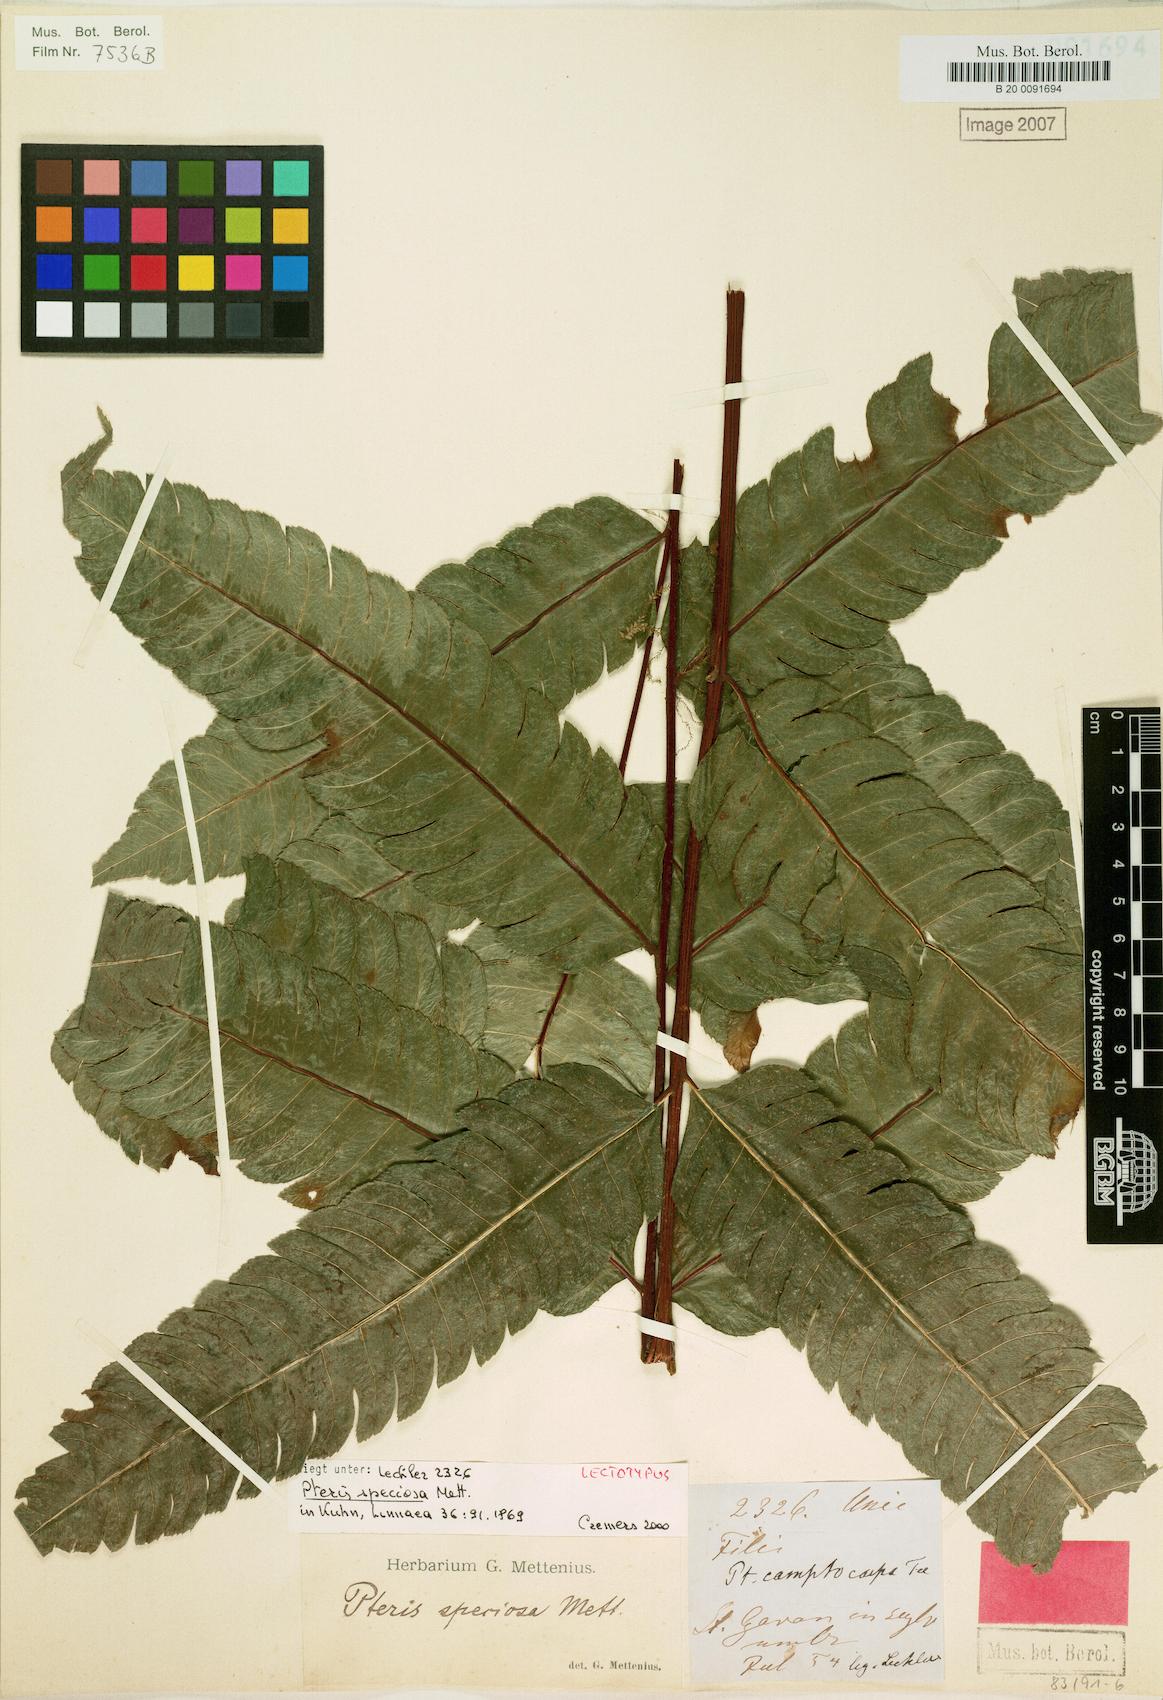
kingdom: Plantae
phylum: Tracheophyta
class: Polypodiopsida
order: Polypodiales
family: Pteridaceae
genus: Pteris
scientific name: Pteris speciosa
